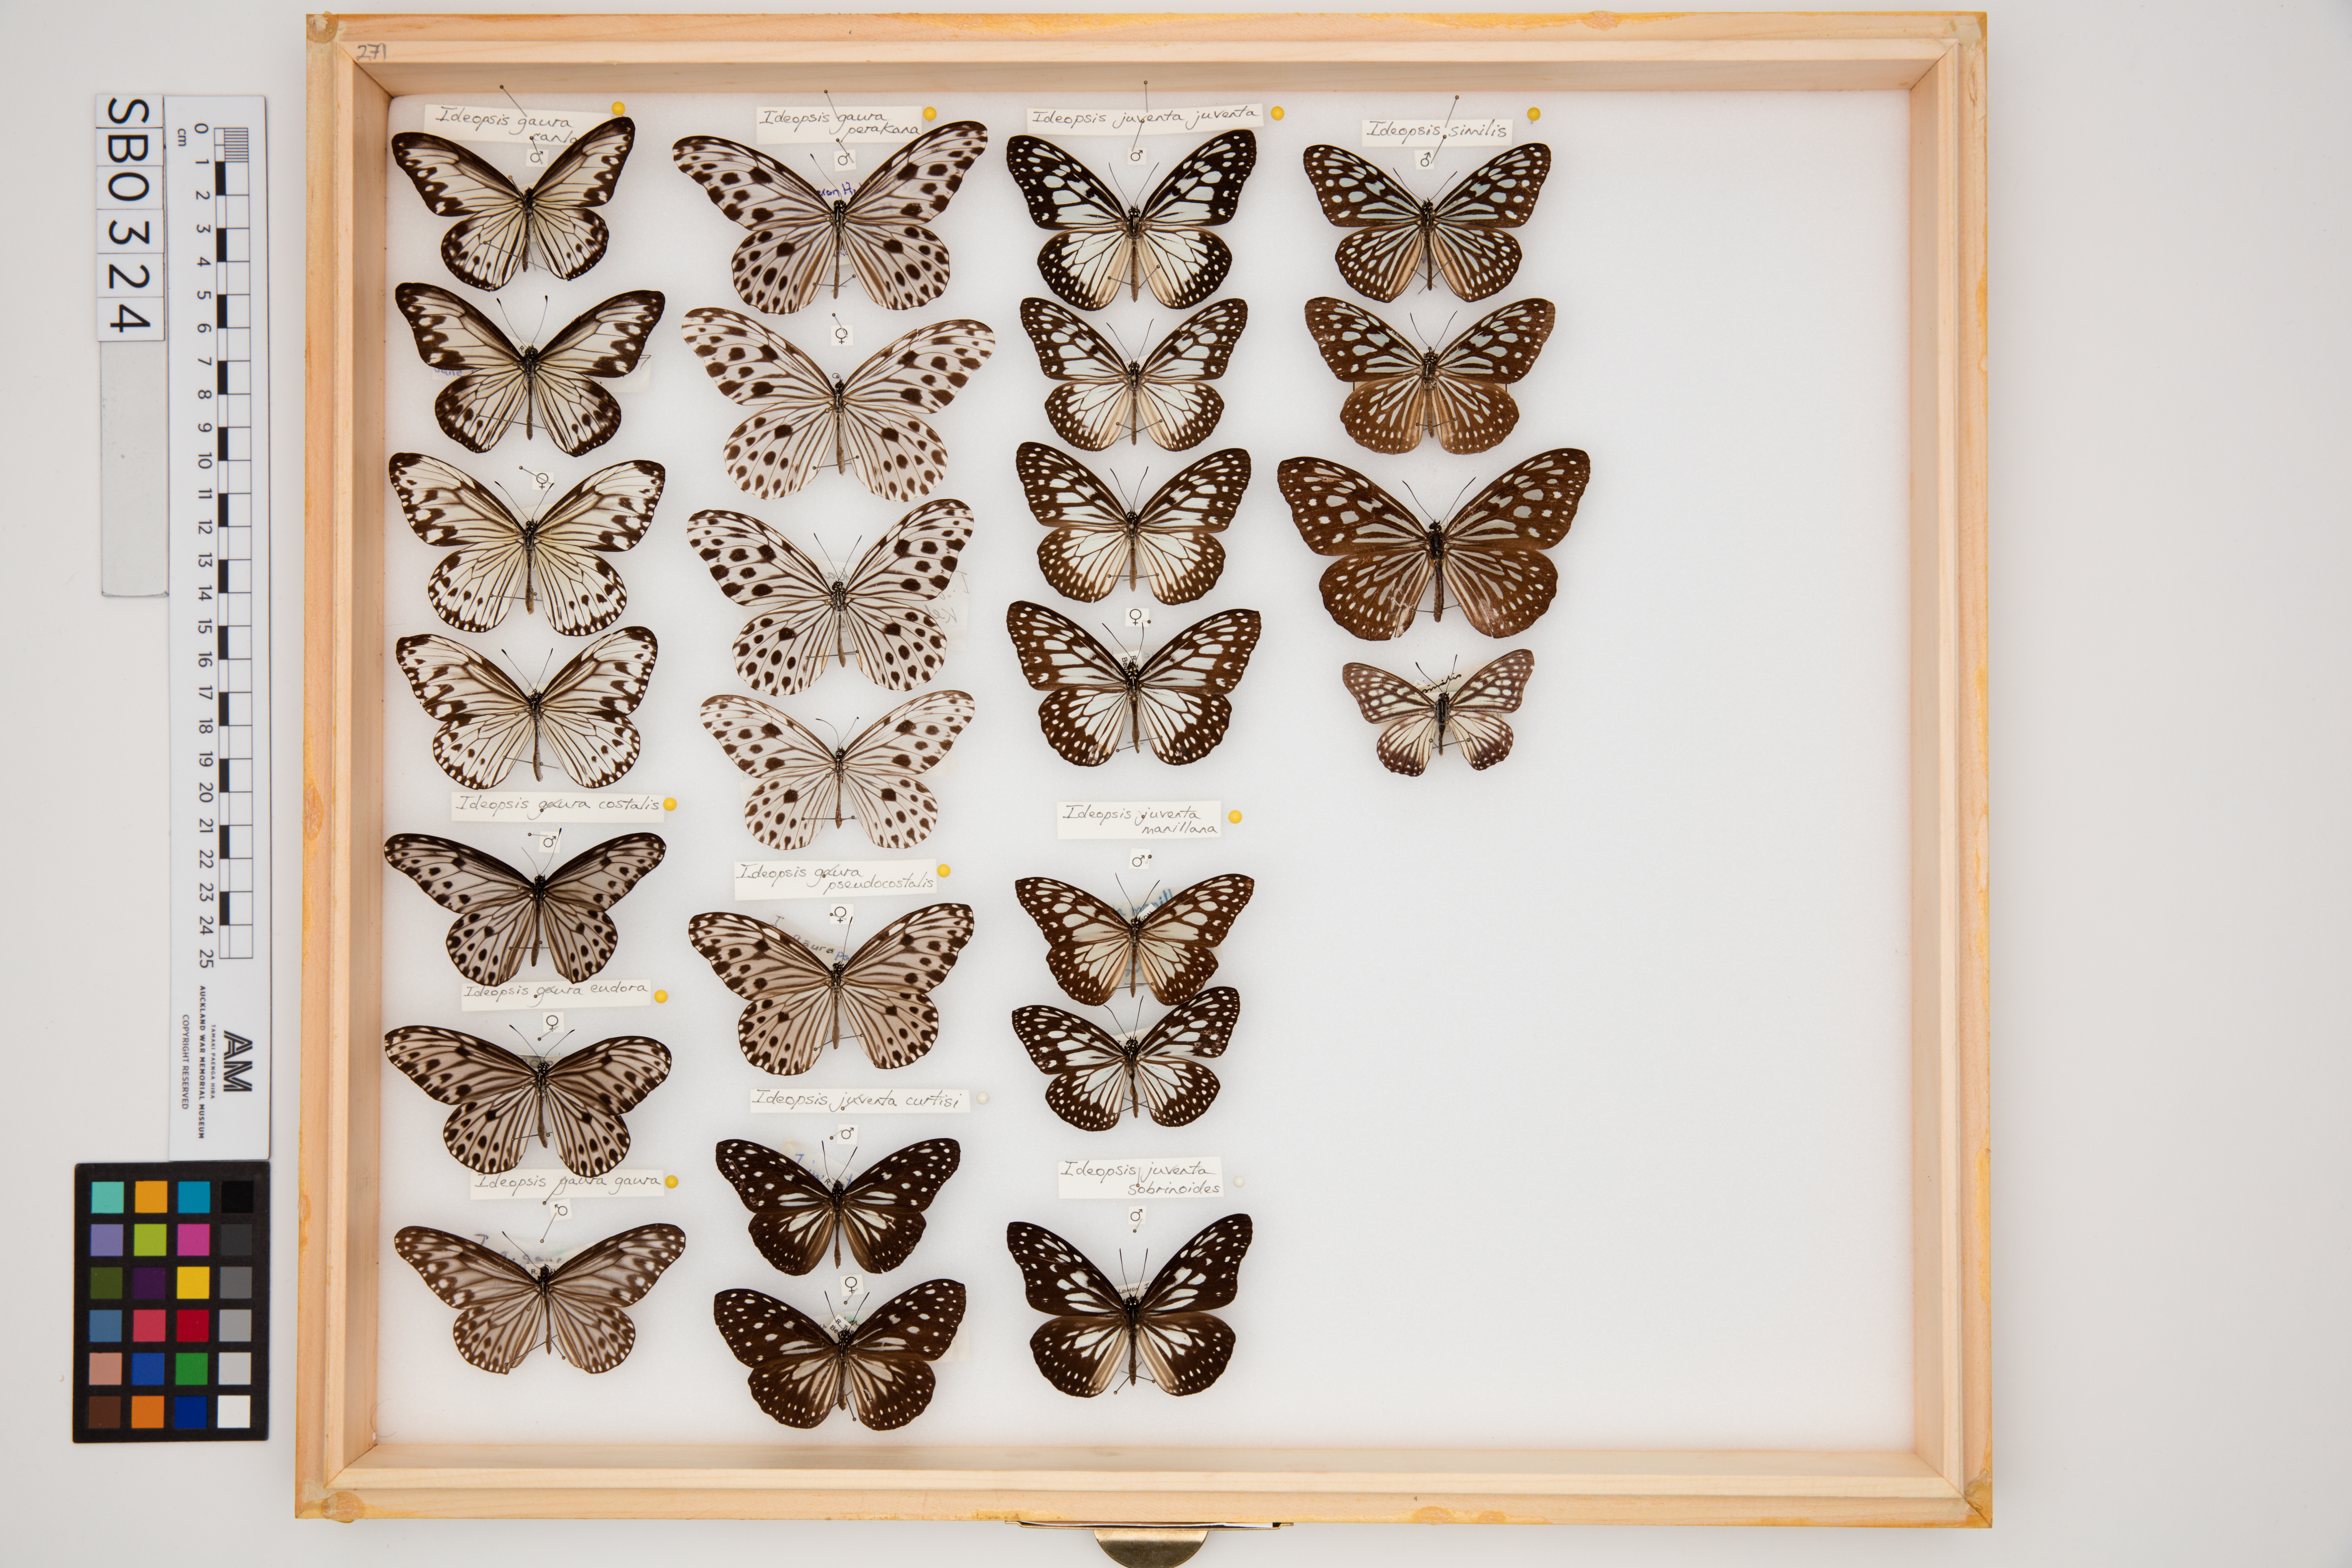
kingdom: Animalia
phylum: Arthropoda
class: Insecta
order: Lepidoptera
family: Nymphalidae
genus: Ideopsis
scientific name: Ideopsis gaura
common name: Smaller wood nymph
